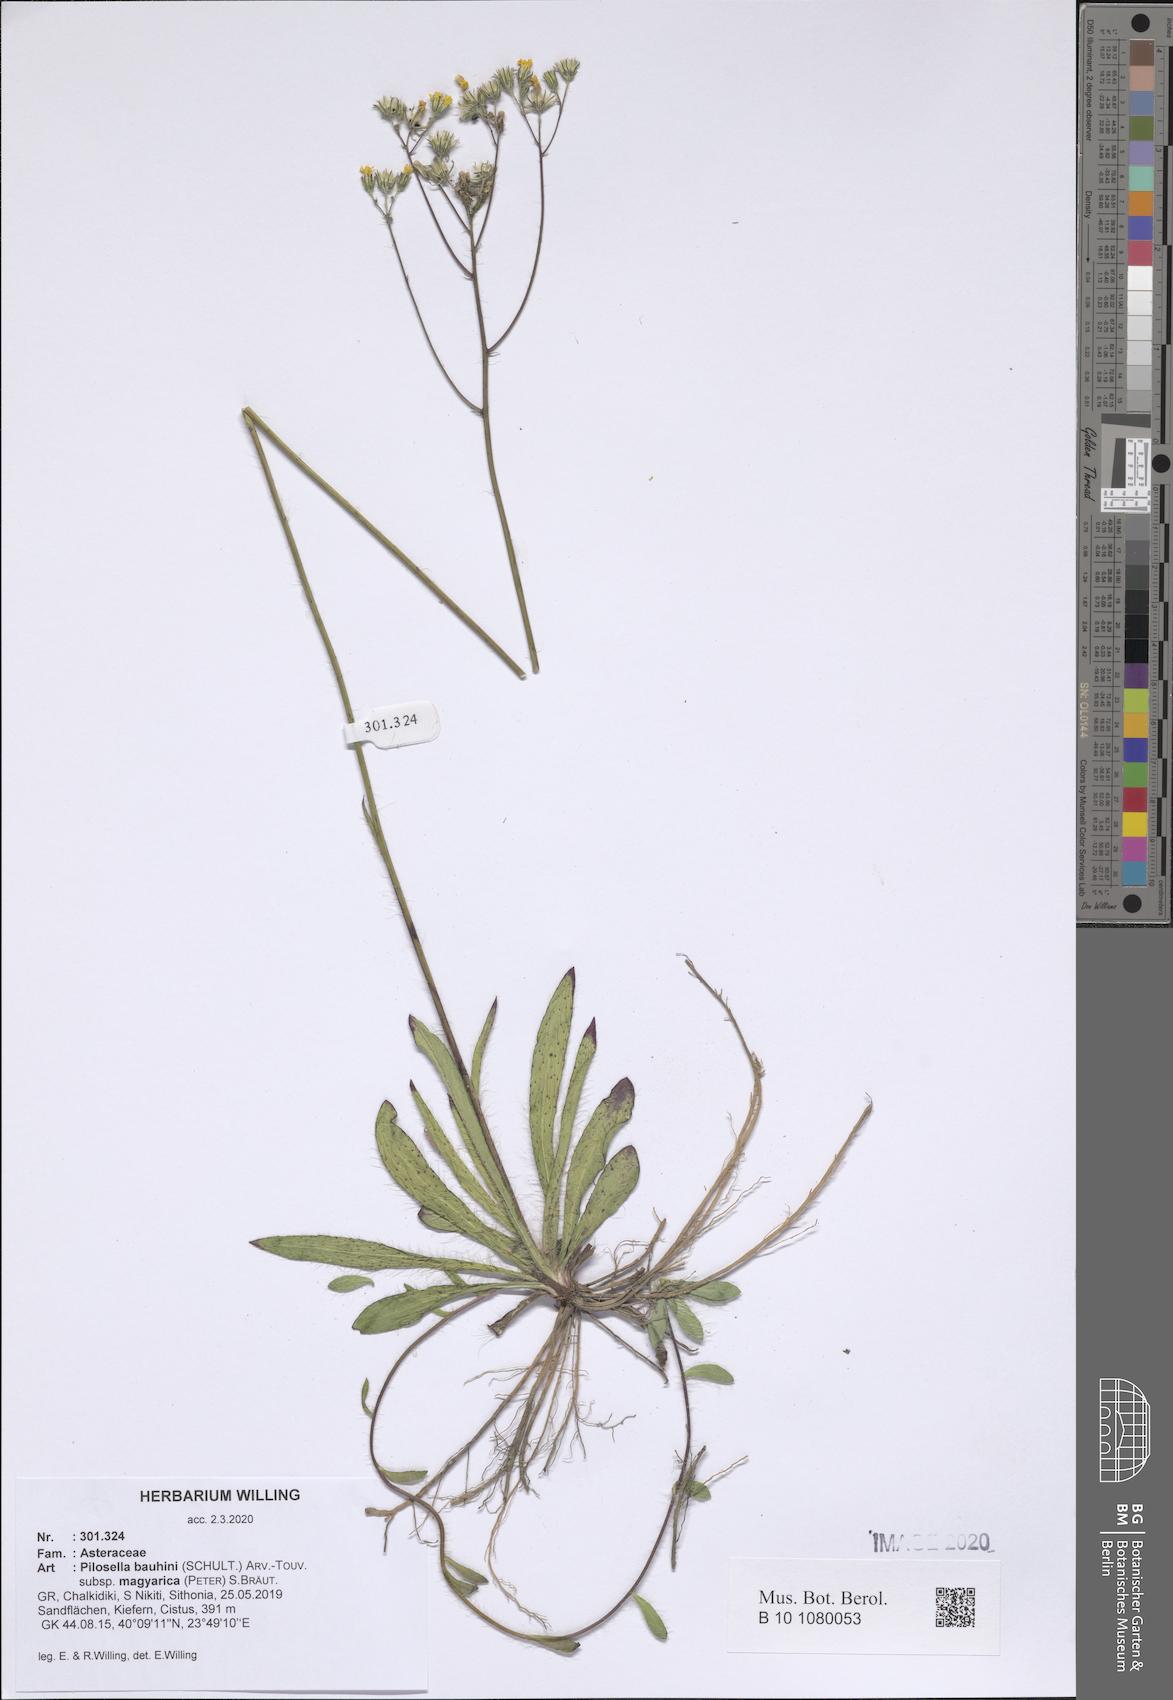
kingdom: Plantae
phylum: Tracheophyta
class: Magnoliopsida
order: Asterales
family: Asteraceae
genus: Pilosella
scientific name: Pilosella bauhini
